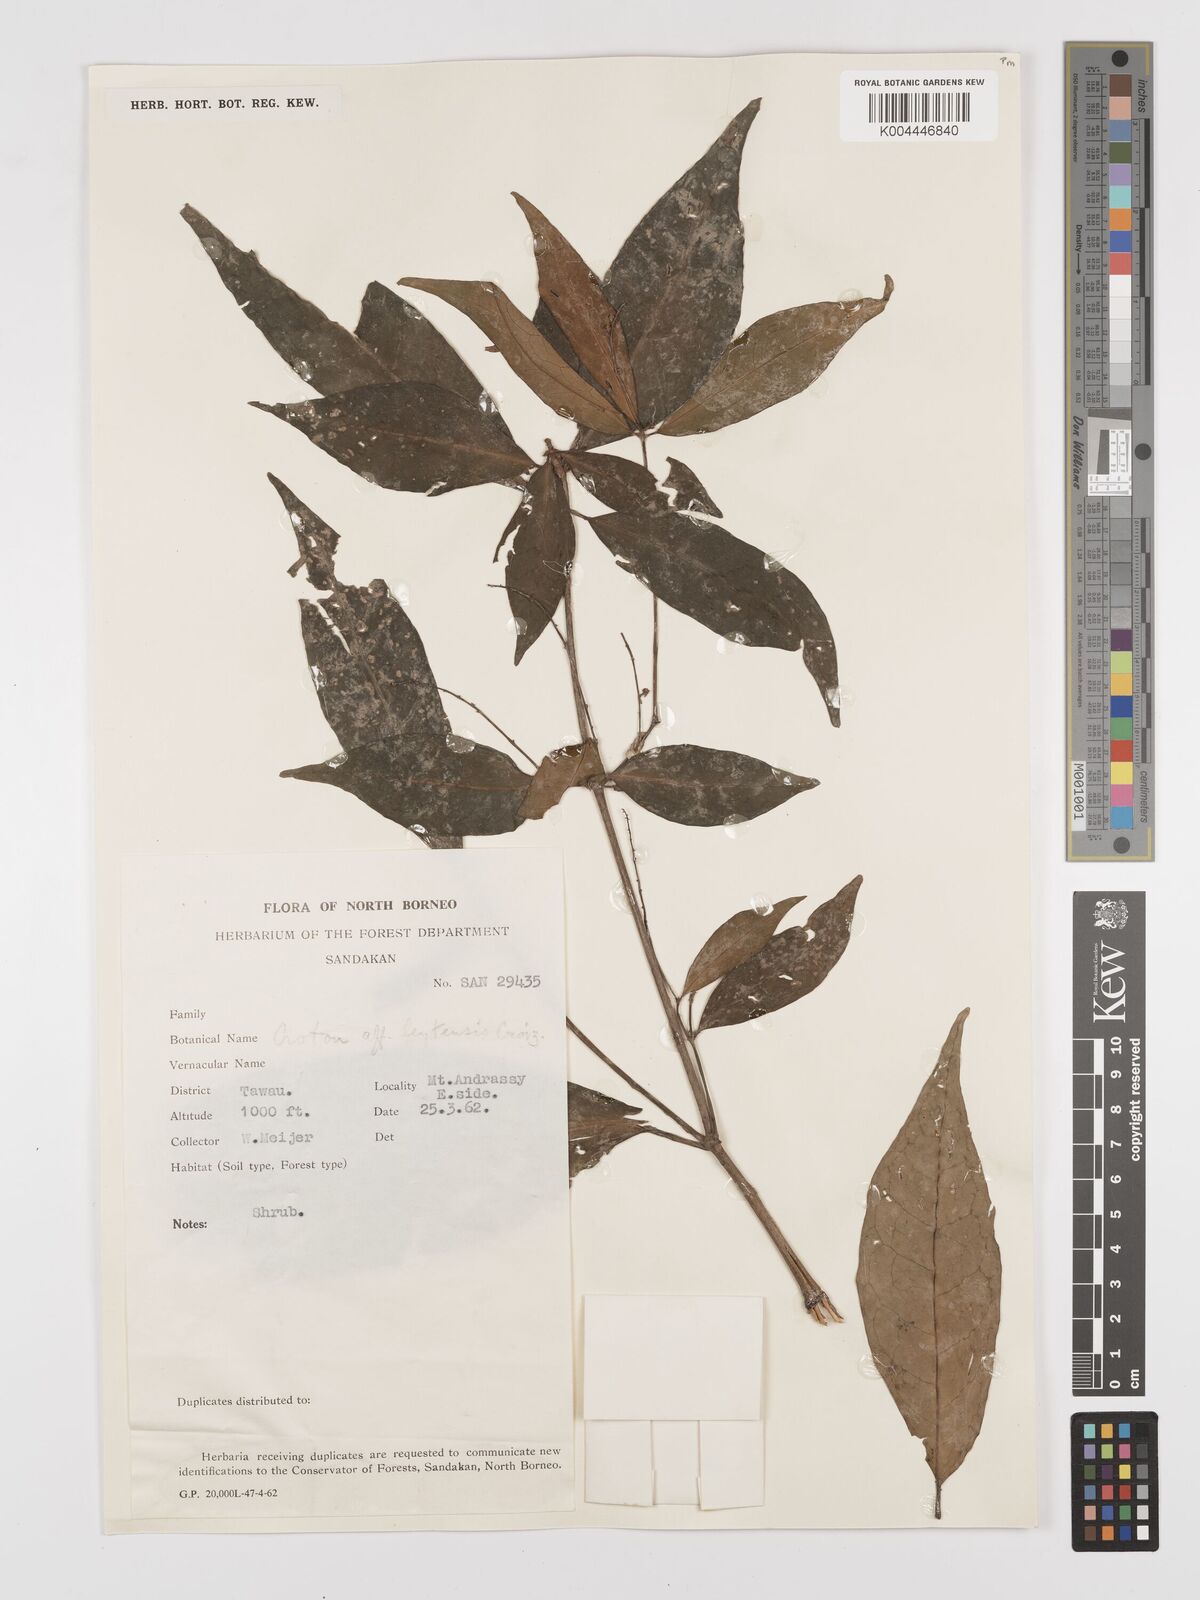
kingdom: Plantae
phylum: Tracheophyta
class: Magnoliopsida
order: Malpighiales
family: Euphorbiaceae
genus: Croton
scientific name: Croton leytensis
